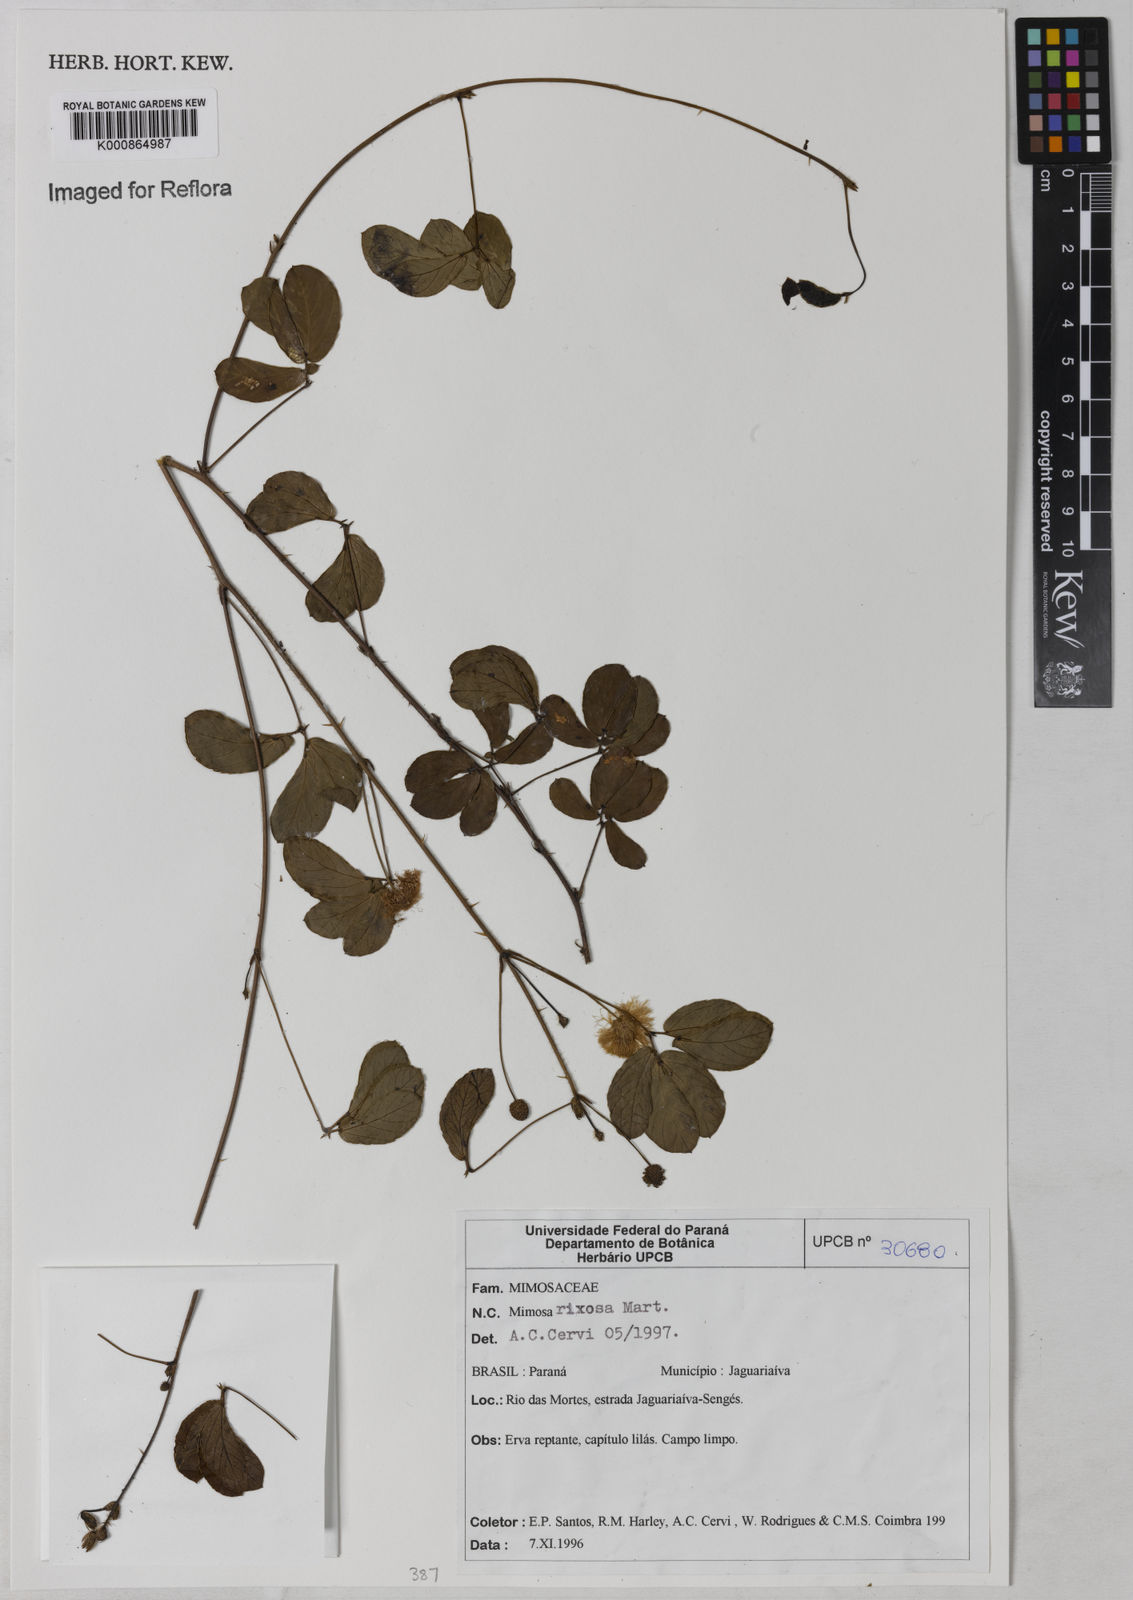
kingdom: Plantae
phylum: Tracheophyta
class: Magnoliopsida
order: Fabales
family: Fabaceae
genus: Mimosa
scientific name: Mimosa debilis
